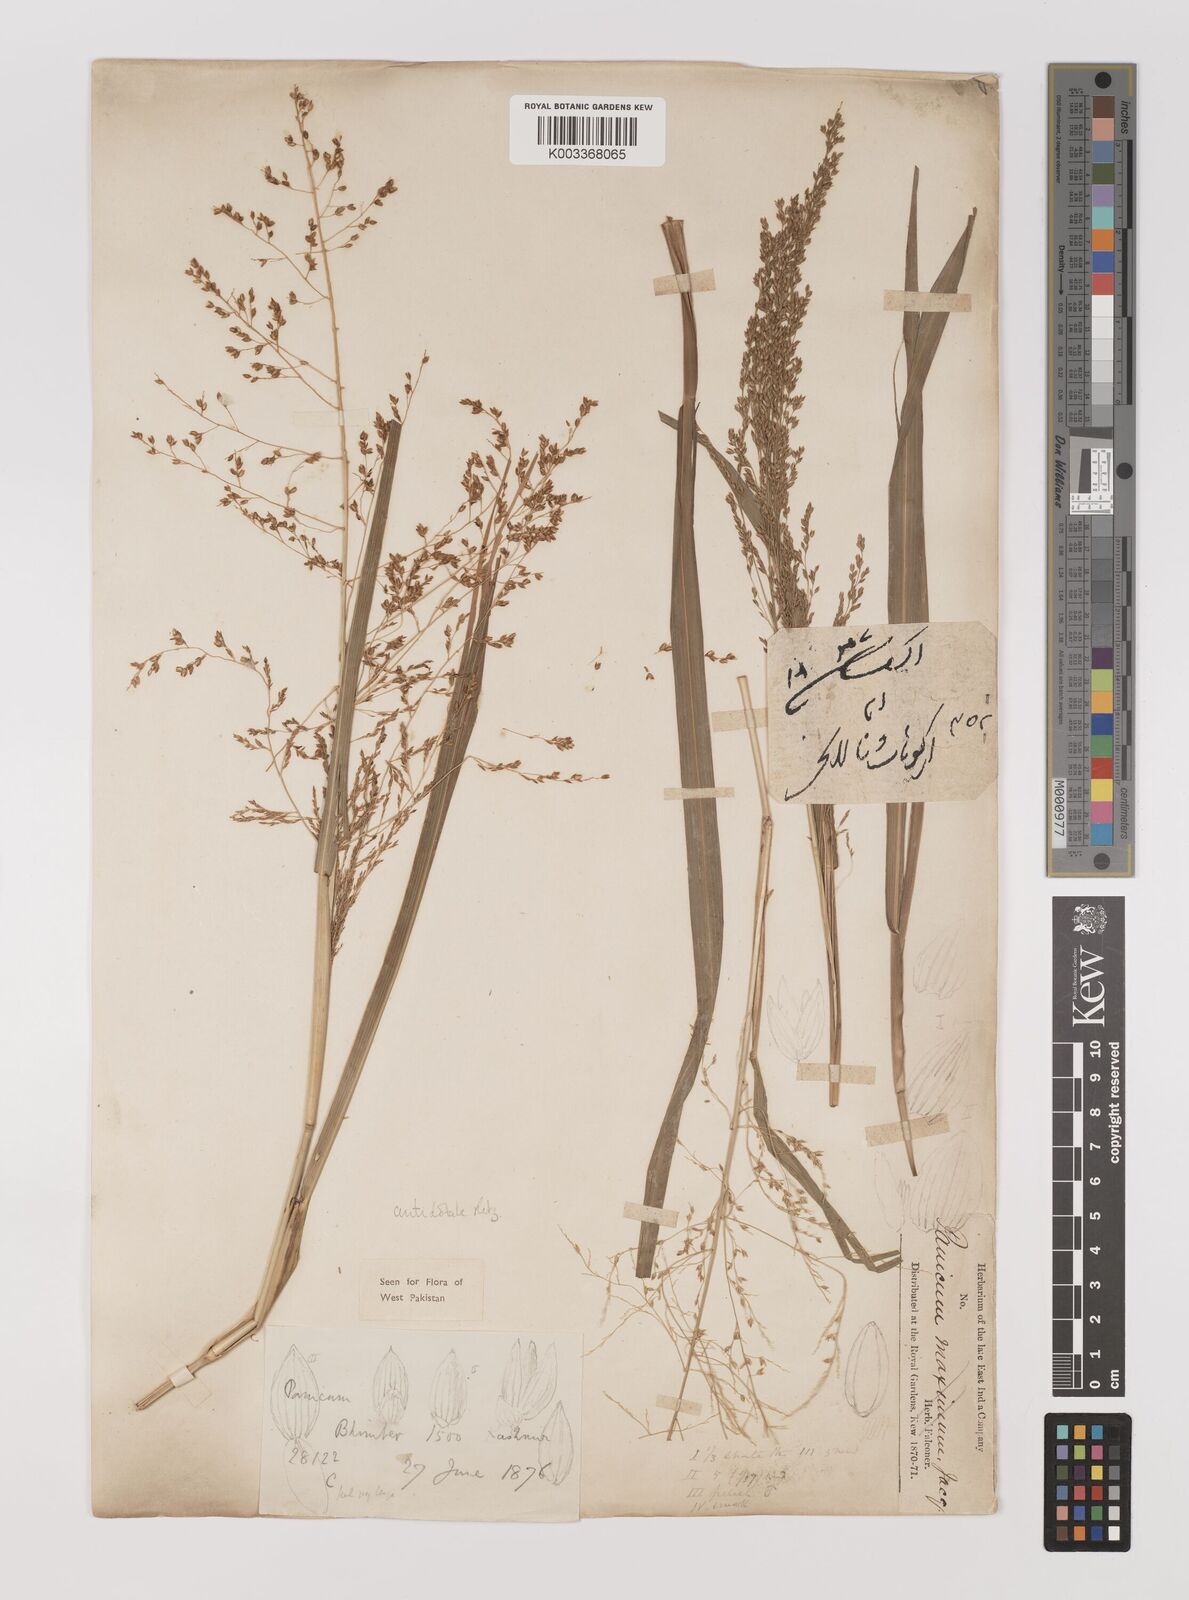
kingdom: Plantae
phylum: Tracheophyta
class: Liliopsida
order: Poales
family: Poaceae
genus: Panicum
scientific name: Panicum antidotale
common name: Blue panicum
